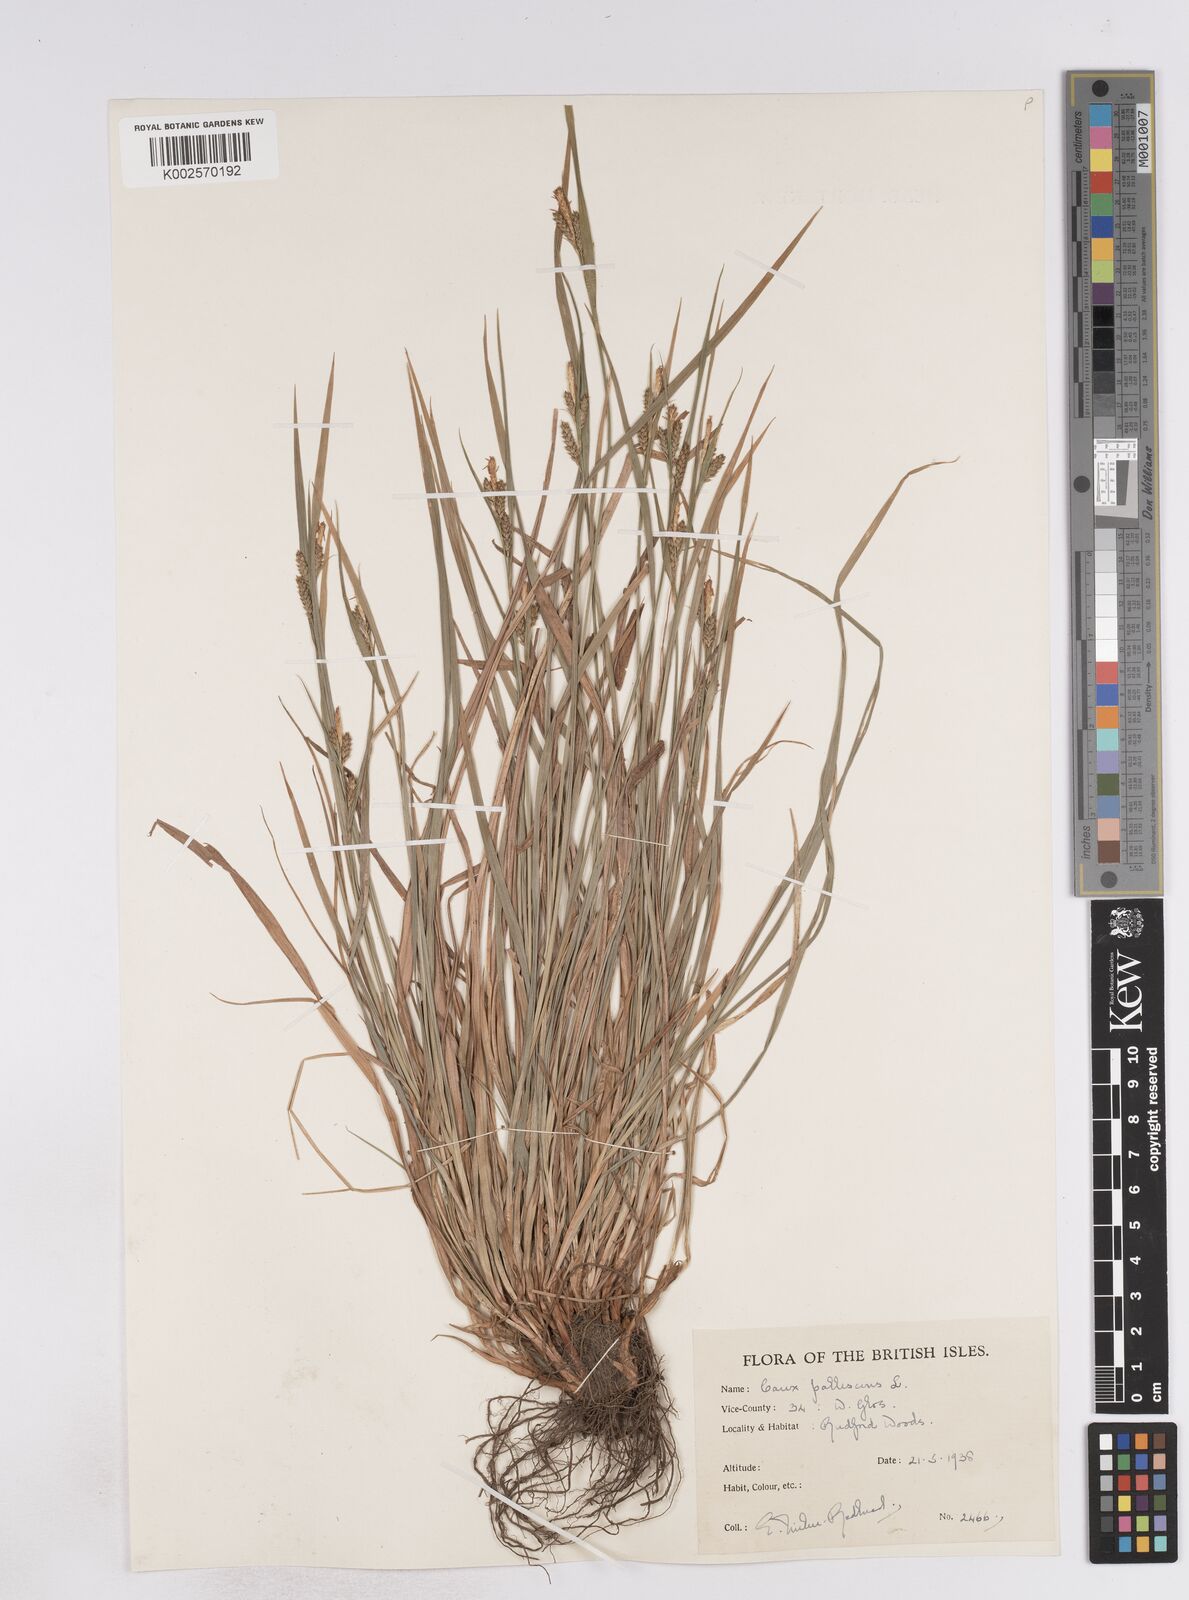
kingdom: Plantae
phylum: Tracheophyta
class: Liliopsida
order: Poales
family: Cyperaceae
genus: Carex
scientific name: Carex pallescens
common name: Pale sedge
